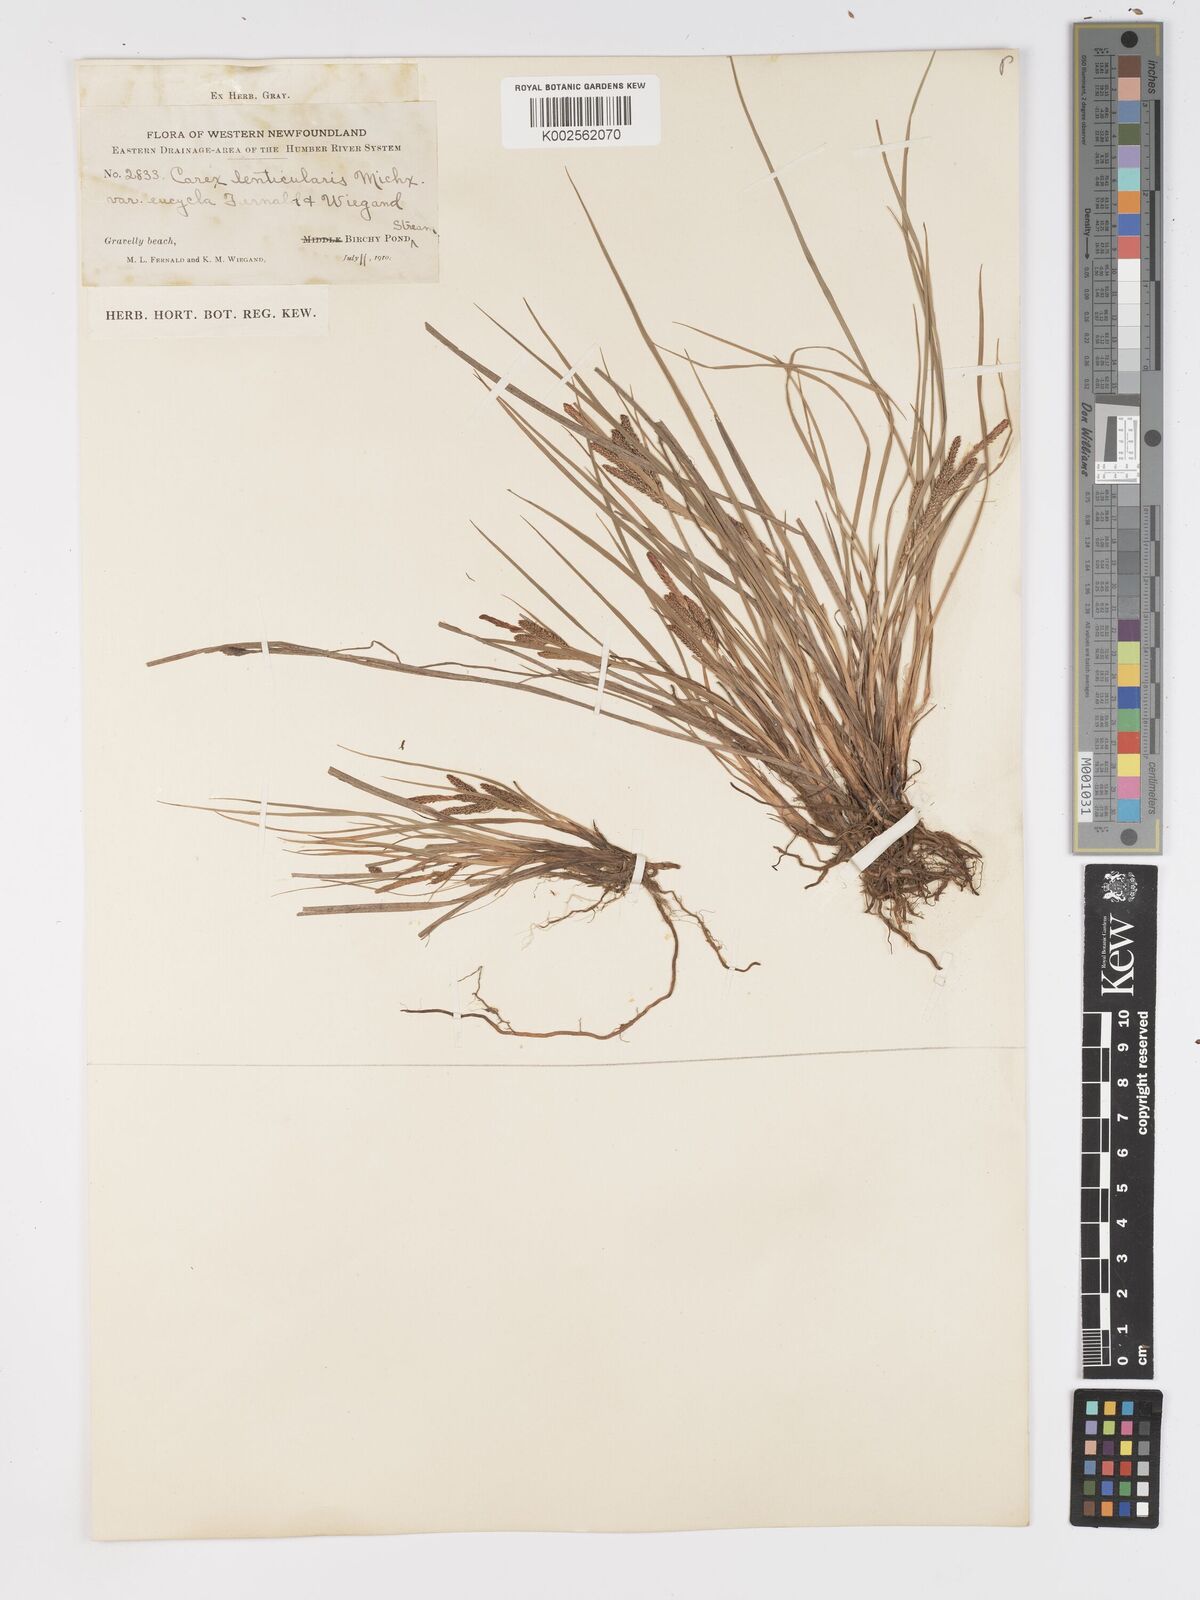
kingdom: Plantae
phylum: Tracheophyta
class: Liliopsida
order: Poales
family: Cyperaceae
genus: Carex
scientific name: Carex lenticularis
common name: Lakeshore sedge
